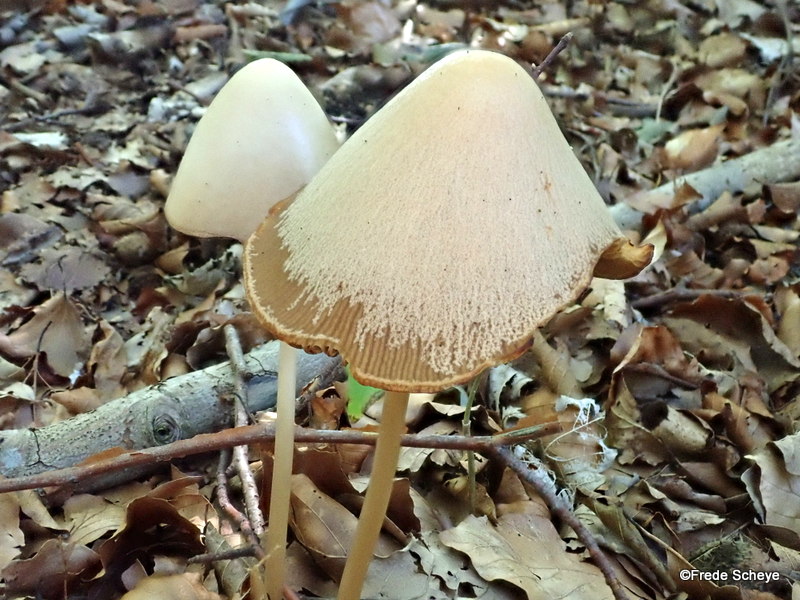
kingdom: Fungi
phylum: Basidiomycota
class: Agaricomycetes
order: Agaricales
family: Psathyrellaceae
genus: Parasola
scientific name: Parasola conopilea
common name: kegle-hjulhat
